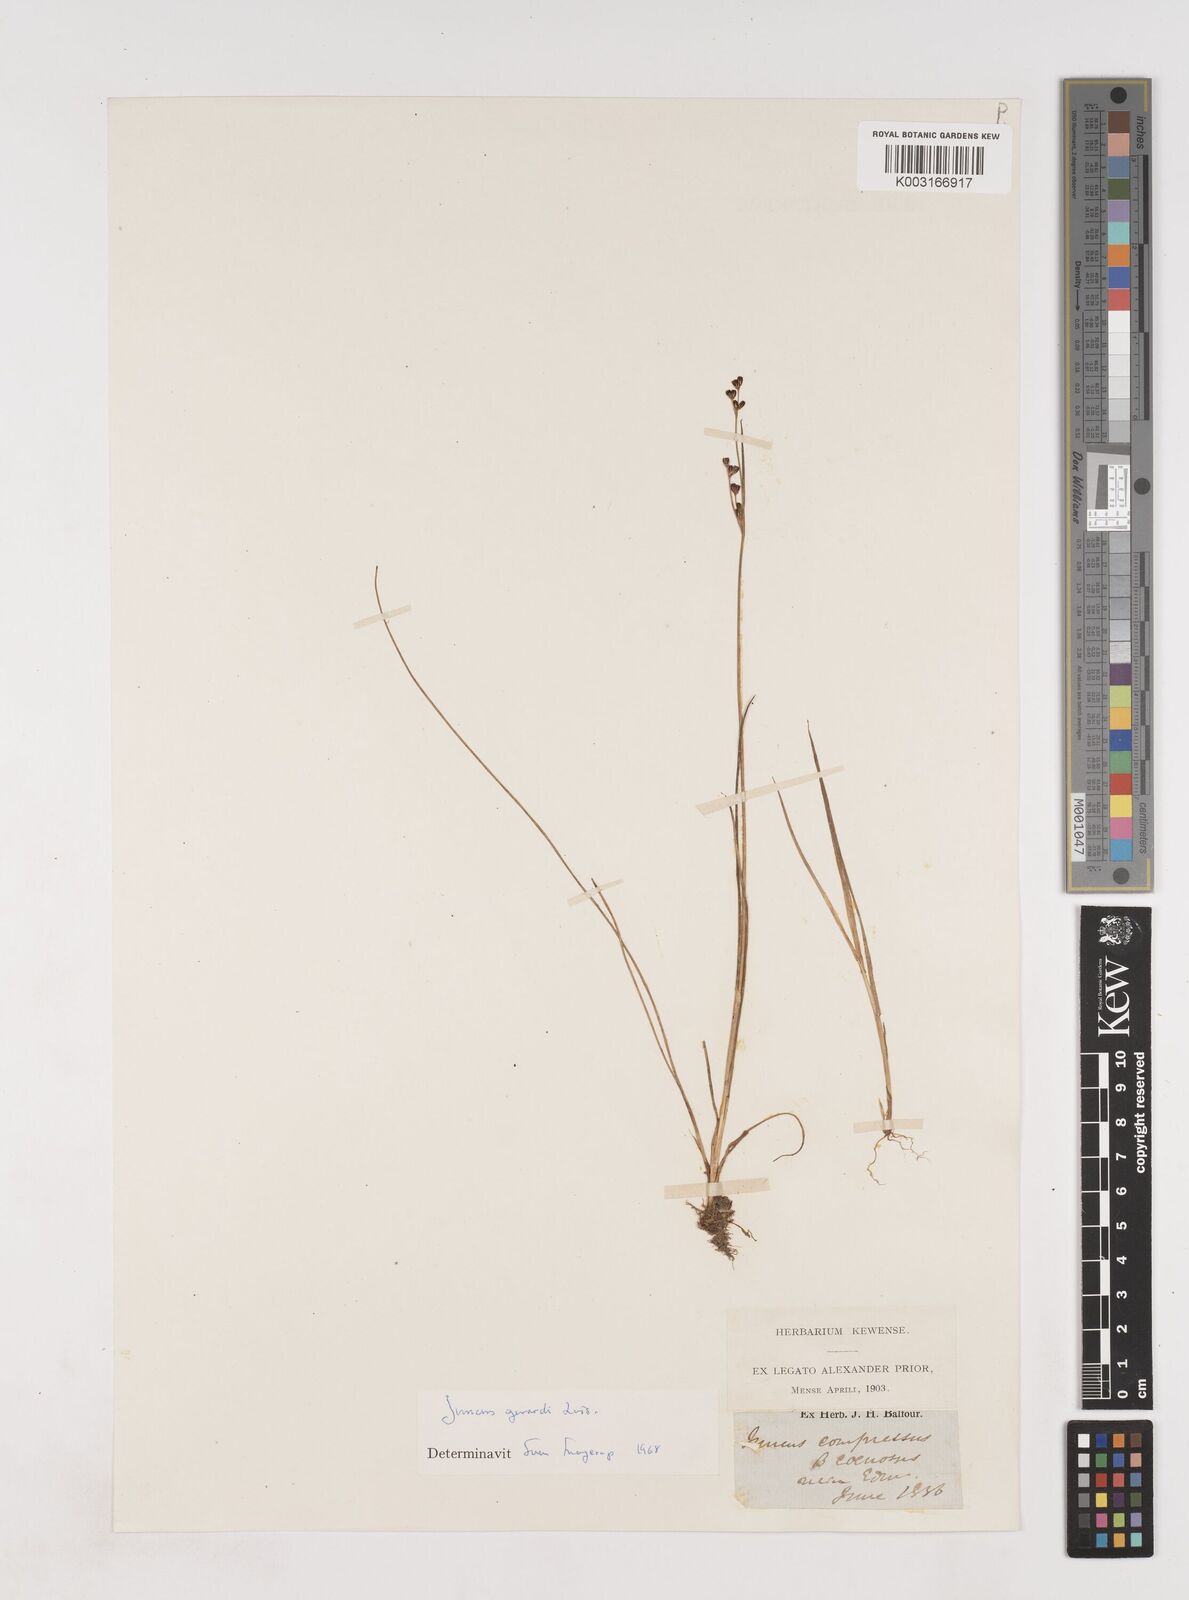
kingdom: Plantae
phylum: Tracheophyta
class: Liliopsida
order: Poales
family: Juncaceae
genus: Juncus
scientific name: Juncus gerardi
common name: Saltmarsh rush
